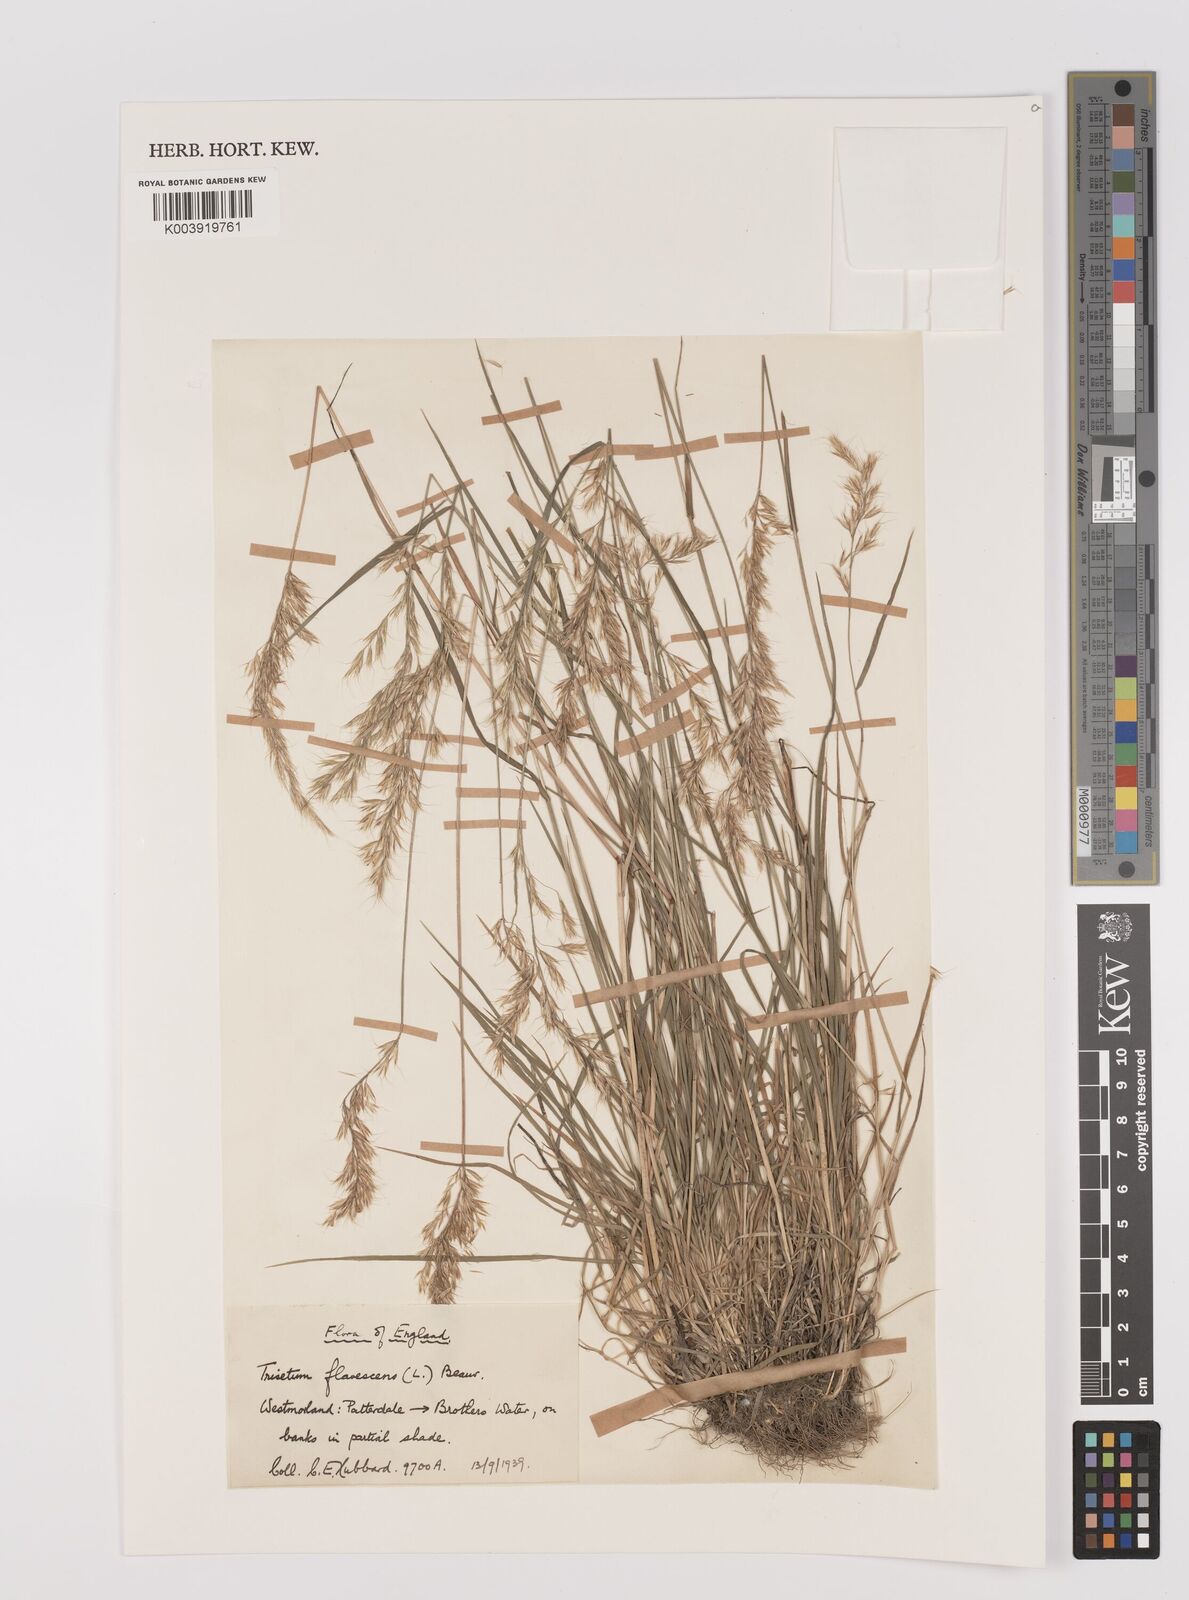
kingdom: Plantae
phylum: Tracheophyta
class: Liliopsida
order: Poales
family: Poaceae
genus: Trisetum
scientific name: Trisetum flavescens
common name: Yellow oat-grass
